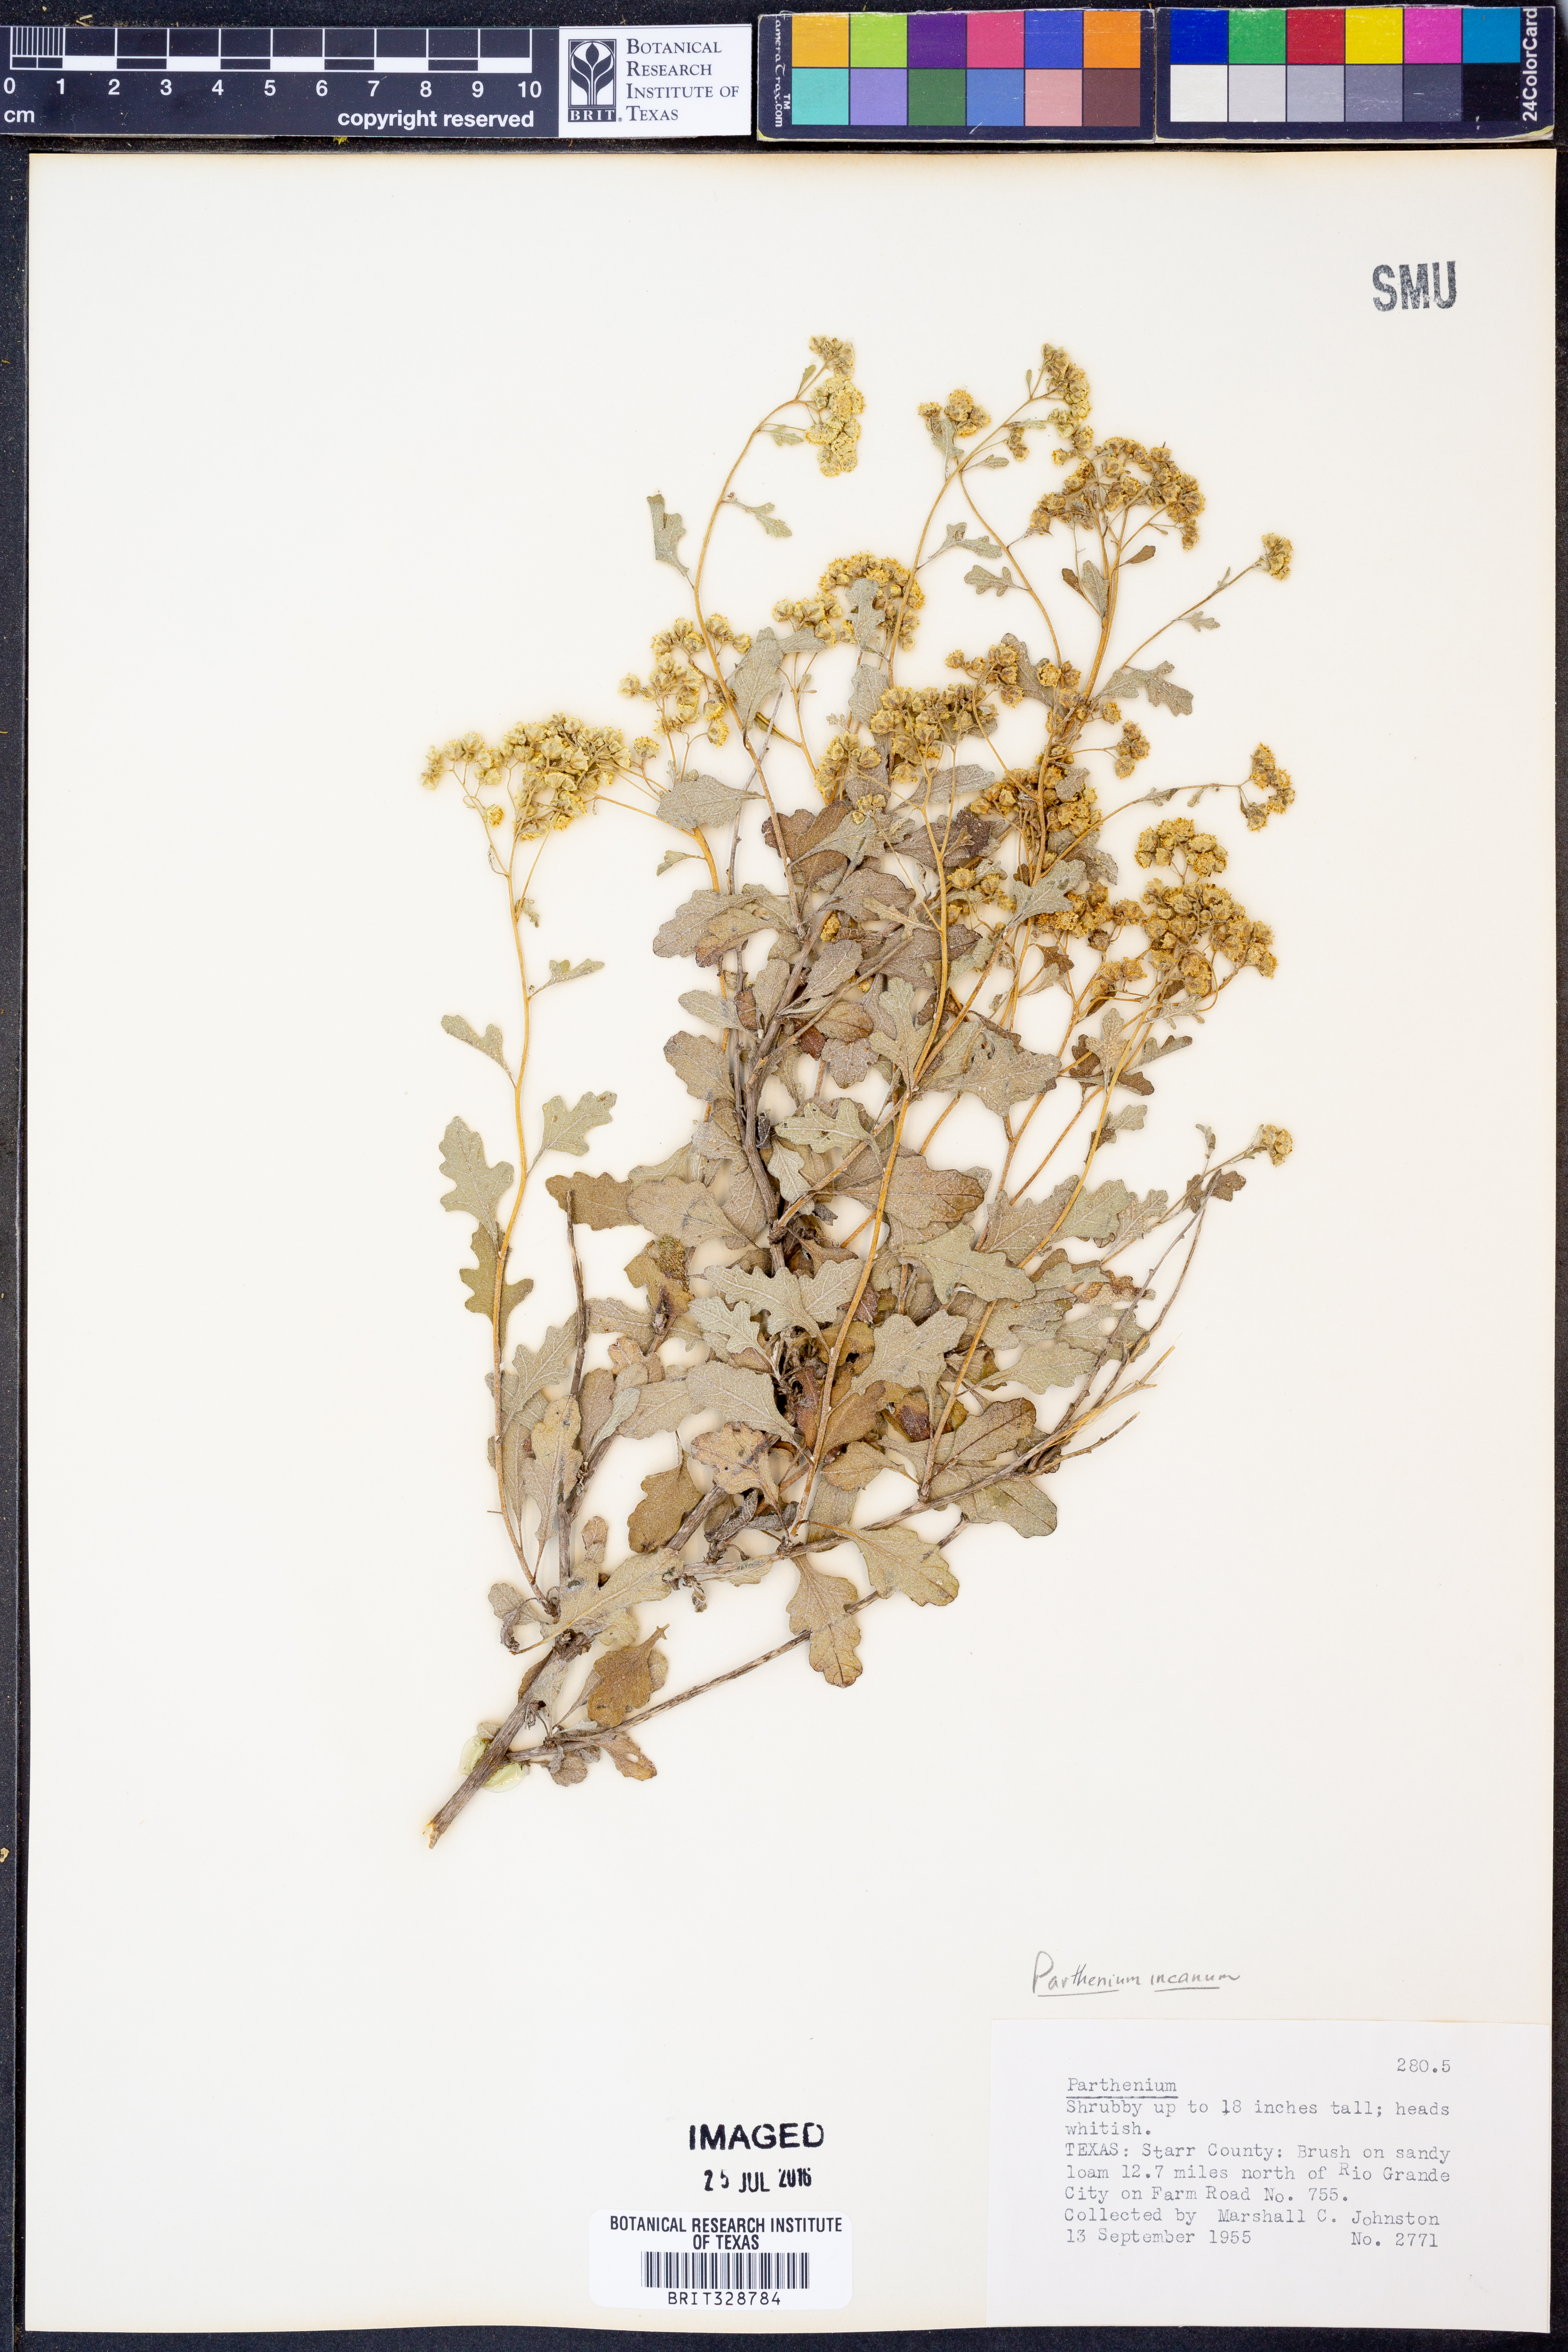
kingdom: Plantae
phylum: Tracheophyta
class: Magnoliopsida
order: Asterales
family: Asteraceae
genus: Parthenium
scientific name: Parthenium incanum
